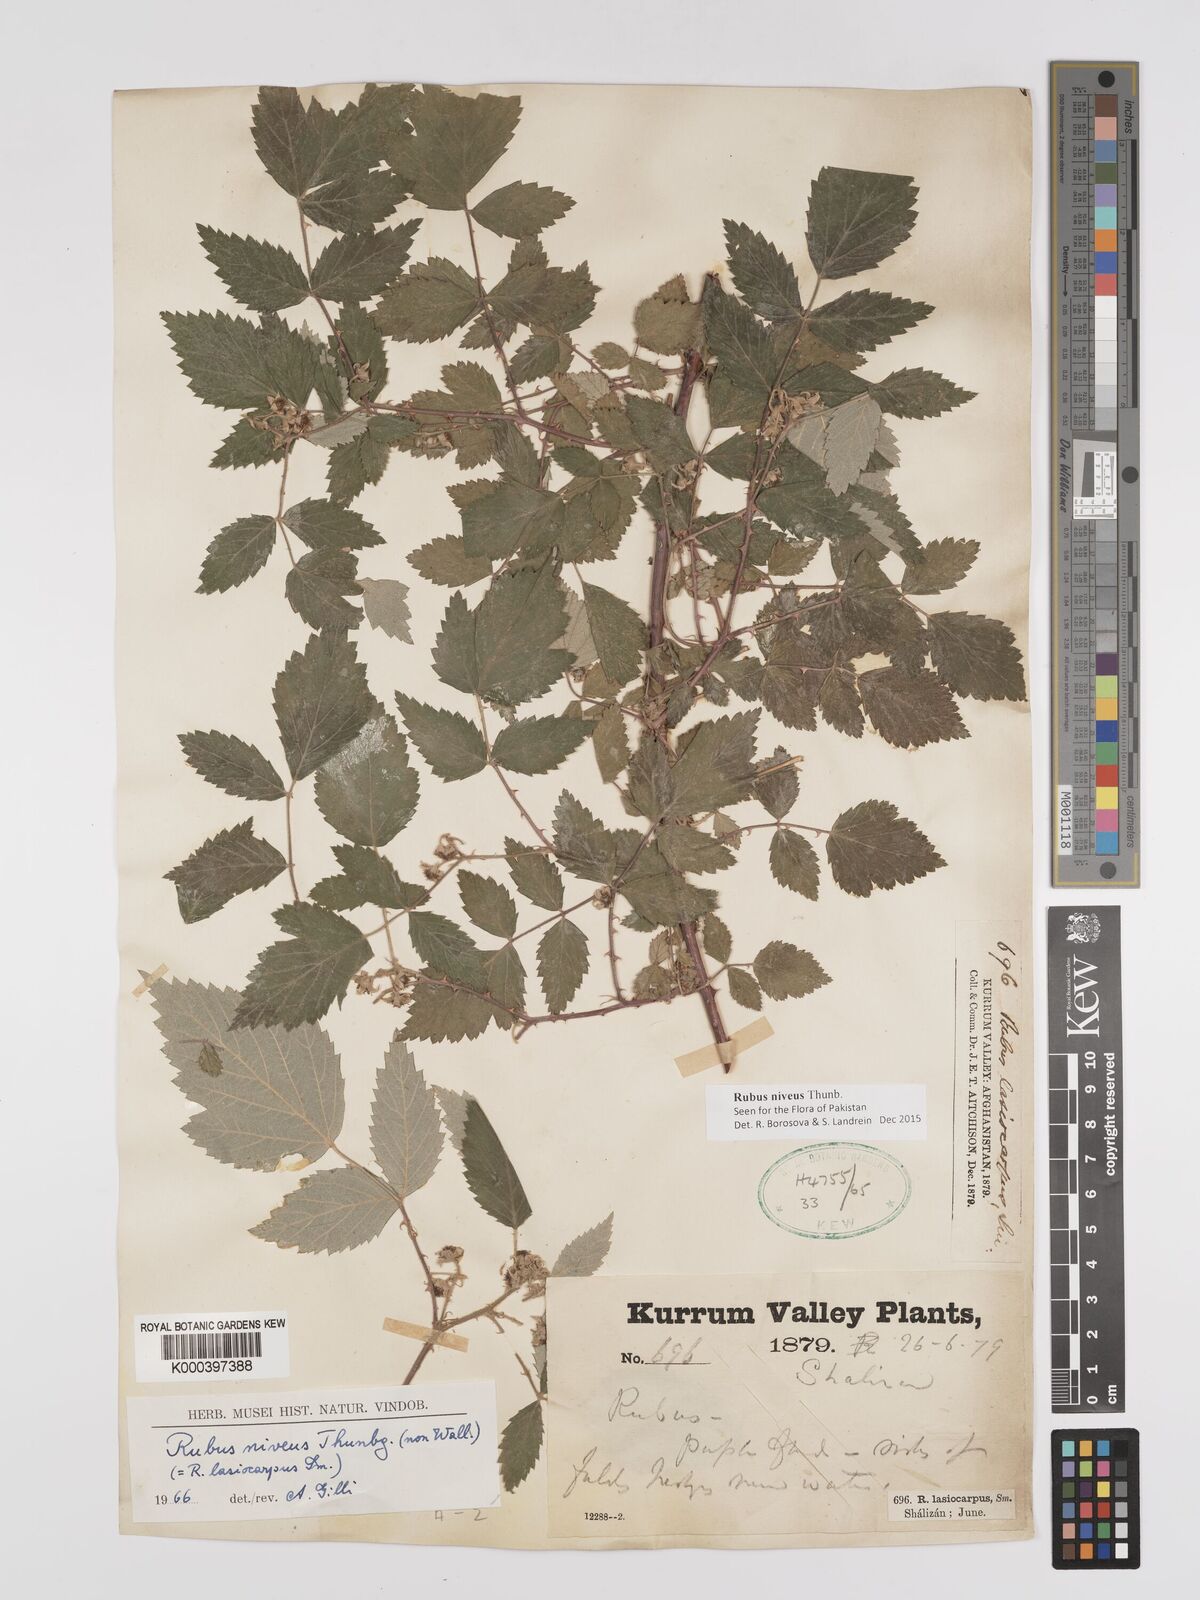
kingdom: Plantae
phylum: Tracheophyta
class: Magnoliopsida
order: Rosales
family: Rosaceae
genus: Rubus
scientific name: Rubus niveus
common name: Snowpeaks raspberry
